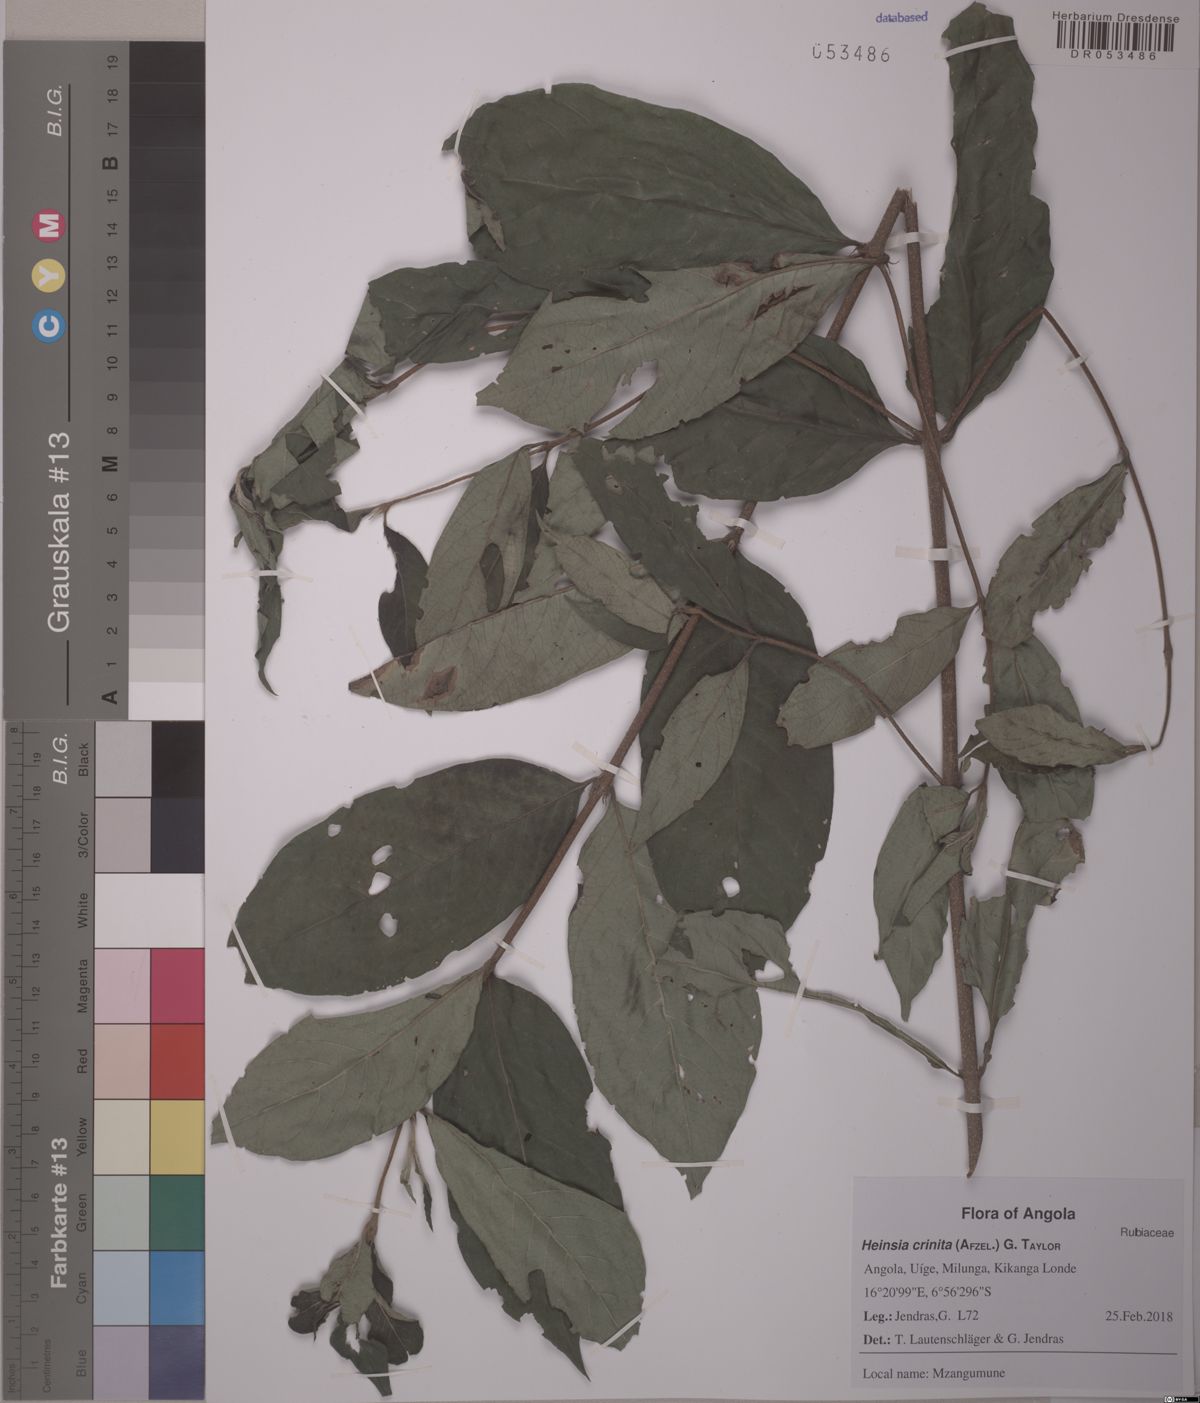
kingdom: Plantae
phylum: Tracheophyta
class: Magnoliopsida
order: Gentianales
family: Rubiaceae
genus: Heinsia
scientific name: Heinsia crinita
